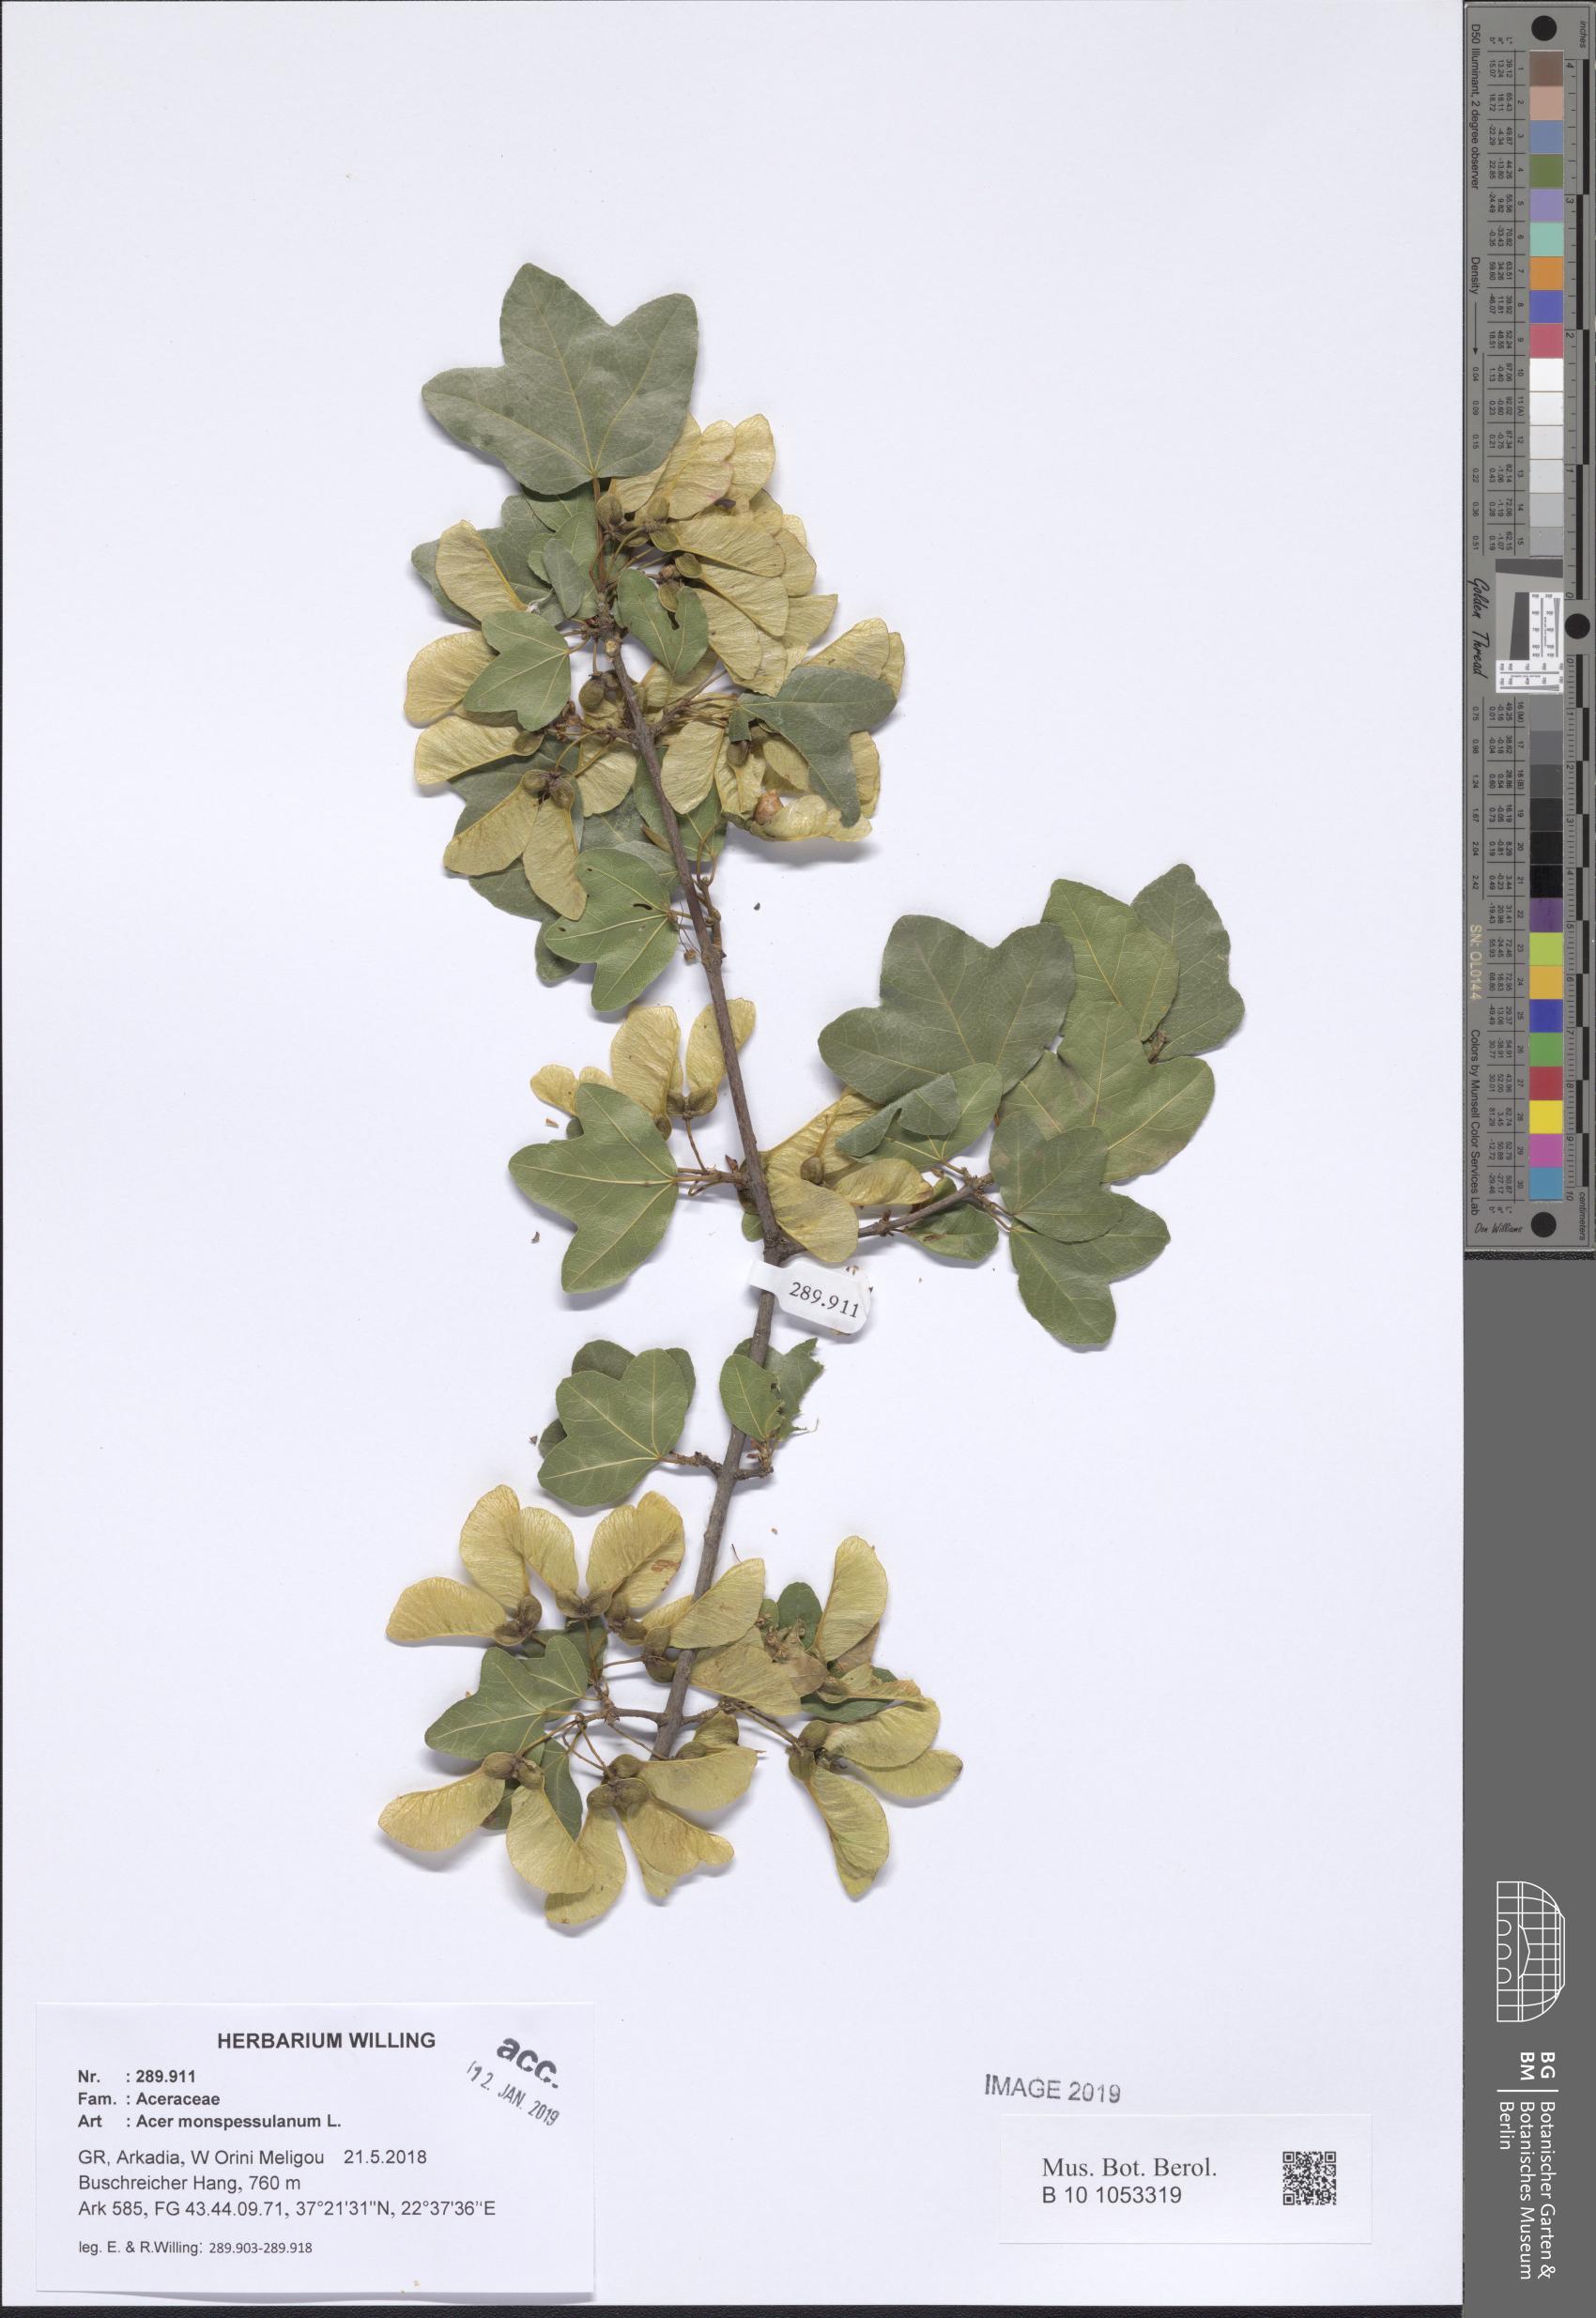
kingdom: Plantae
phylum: Tracheophyta
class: Magnoliopsida
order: Sapindales
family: Sapindaceae
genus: Acer
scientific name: Acer monspessulanum
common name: Montpellier maple
